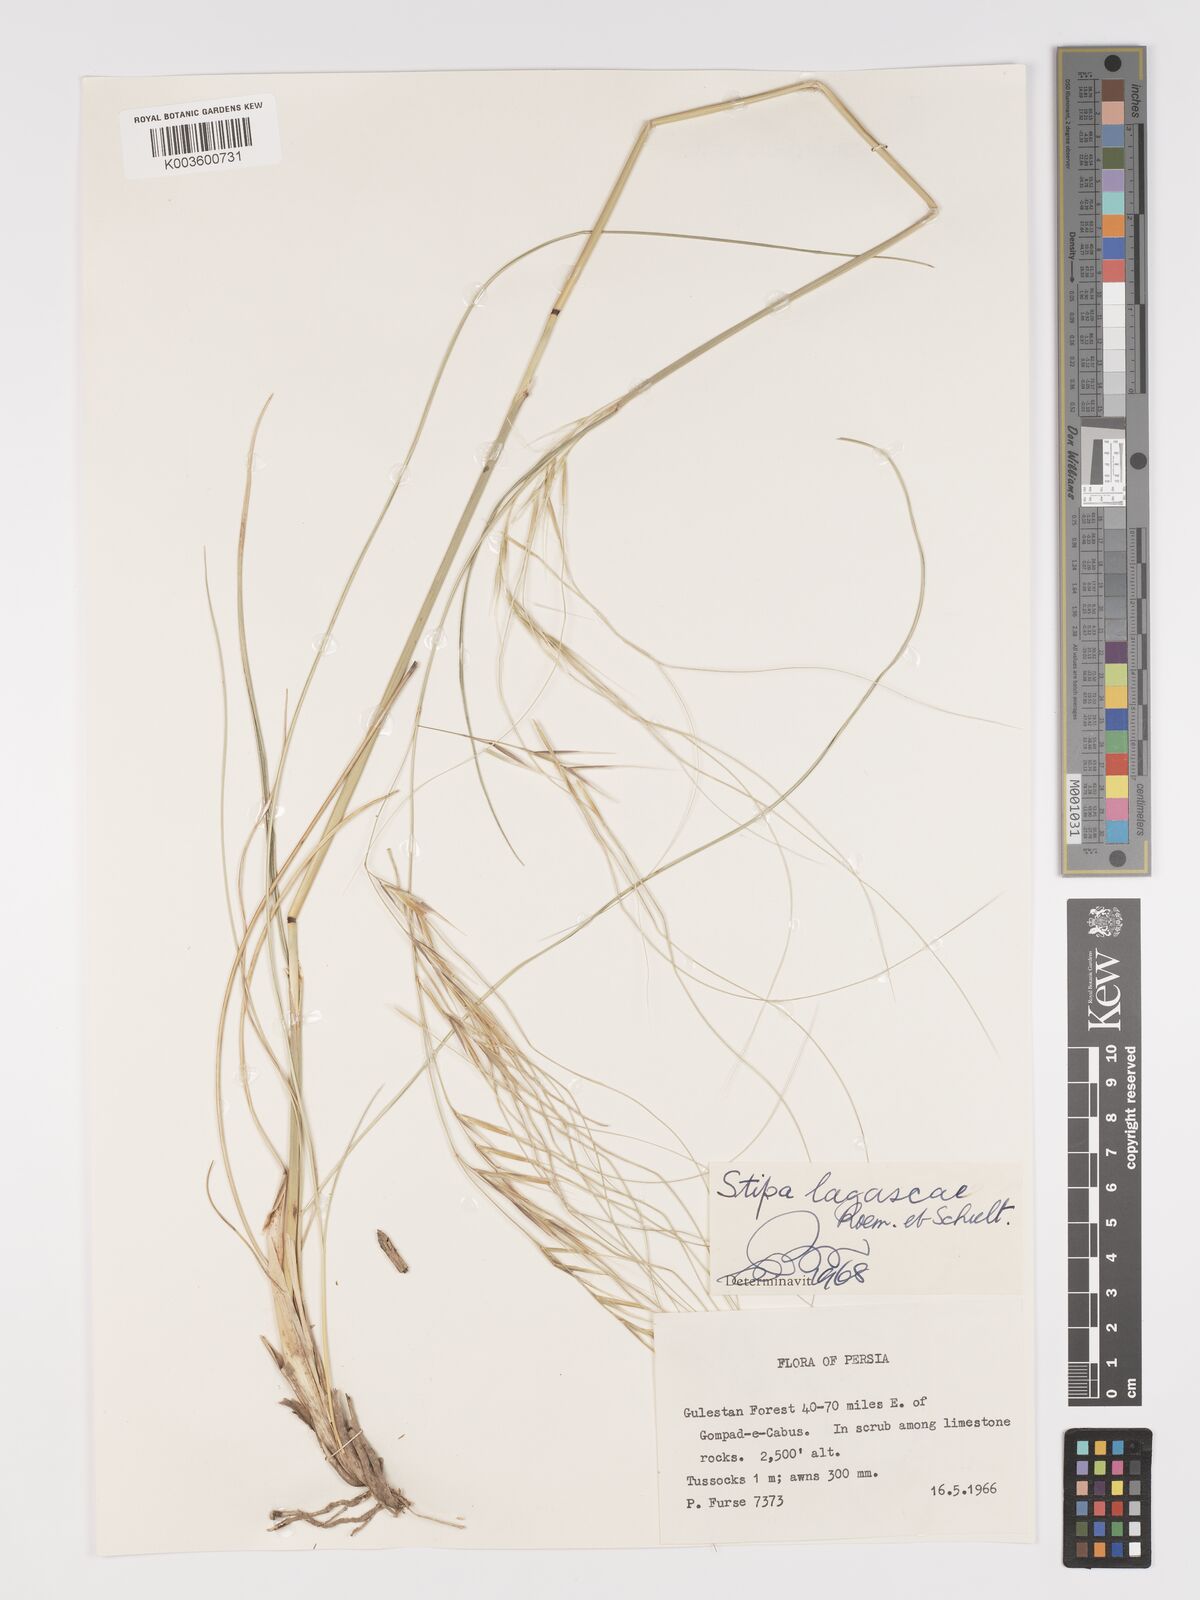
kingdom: Plantae
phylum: Tracheophyta
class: Liliopsida
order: Poales
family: Poaceae
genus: Stipa
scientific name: Stipa holosericea
